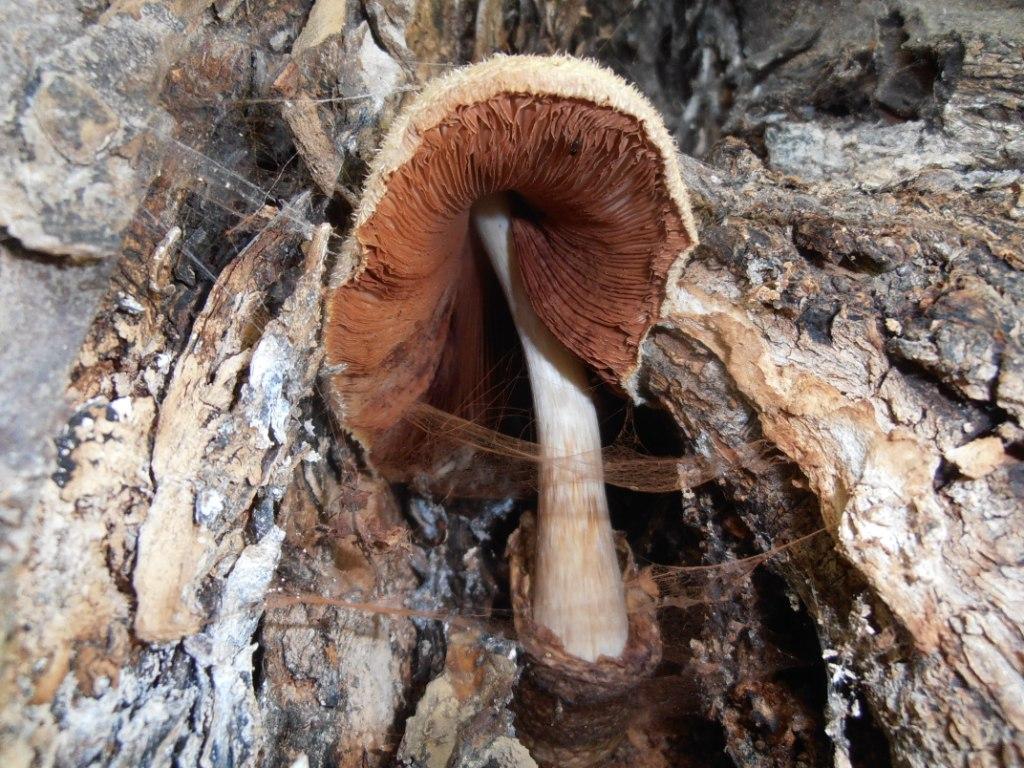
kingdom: Fungi
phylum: Basidiomycota
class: Agaricomycetes
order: Agaricales
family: Pluteaceae
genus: Volvariella
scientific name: Volvariella bombycina
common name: silkehåret posesvamp
